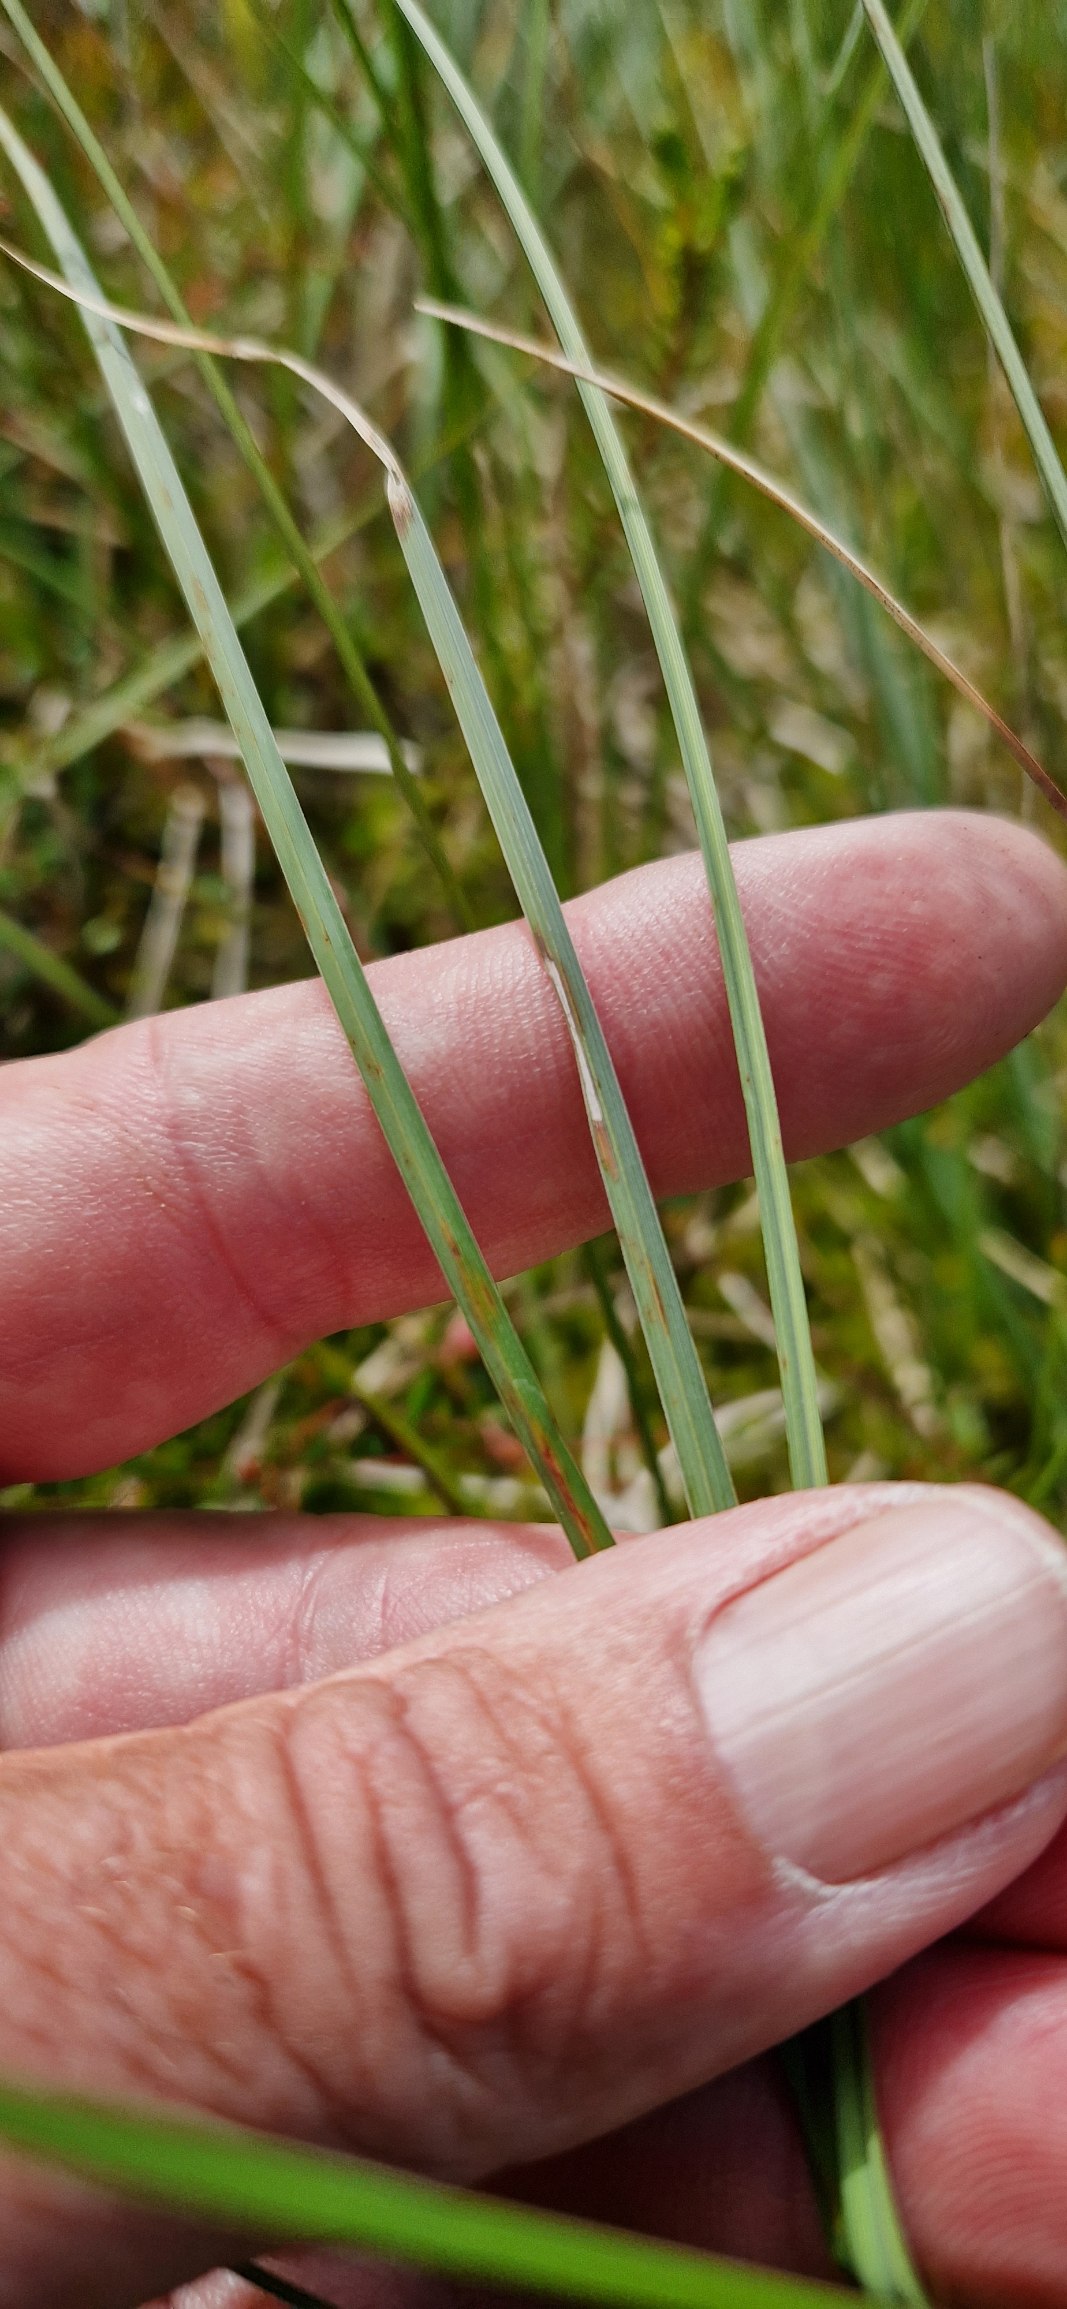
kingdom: Plantae
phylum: Tracheophyta
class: Liliopsida
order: Poales
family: Cyperaceae
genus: Carex
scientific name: Carex rostrata
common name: Næb-star
